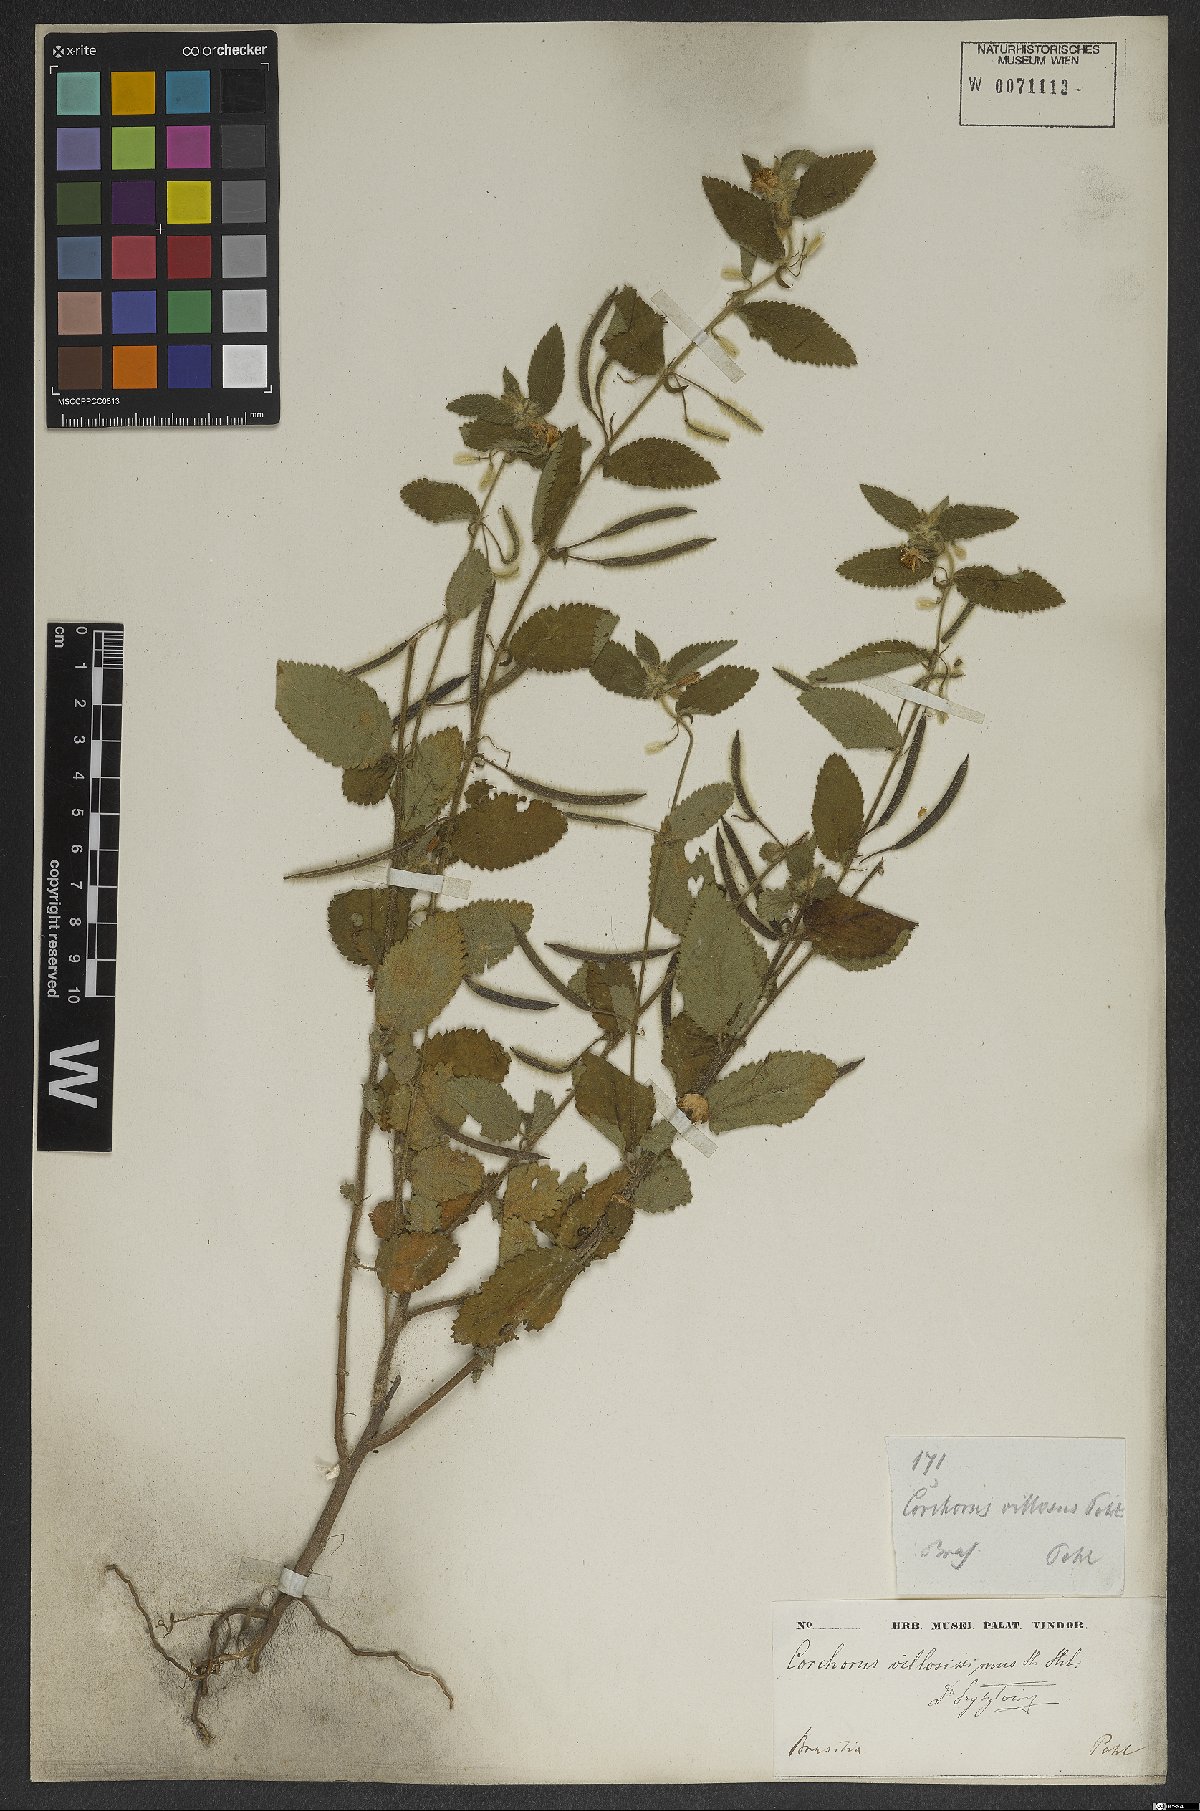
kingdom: Plantae
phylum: Tracheophyta
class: Magnoliopsida
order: Malvales
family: Malvaceae
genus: Corchorus
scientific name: Corchorus hirtus
